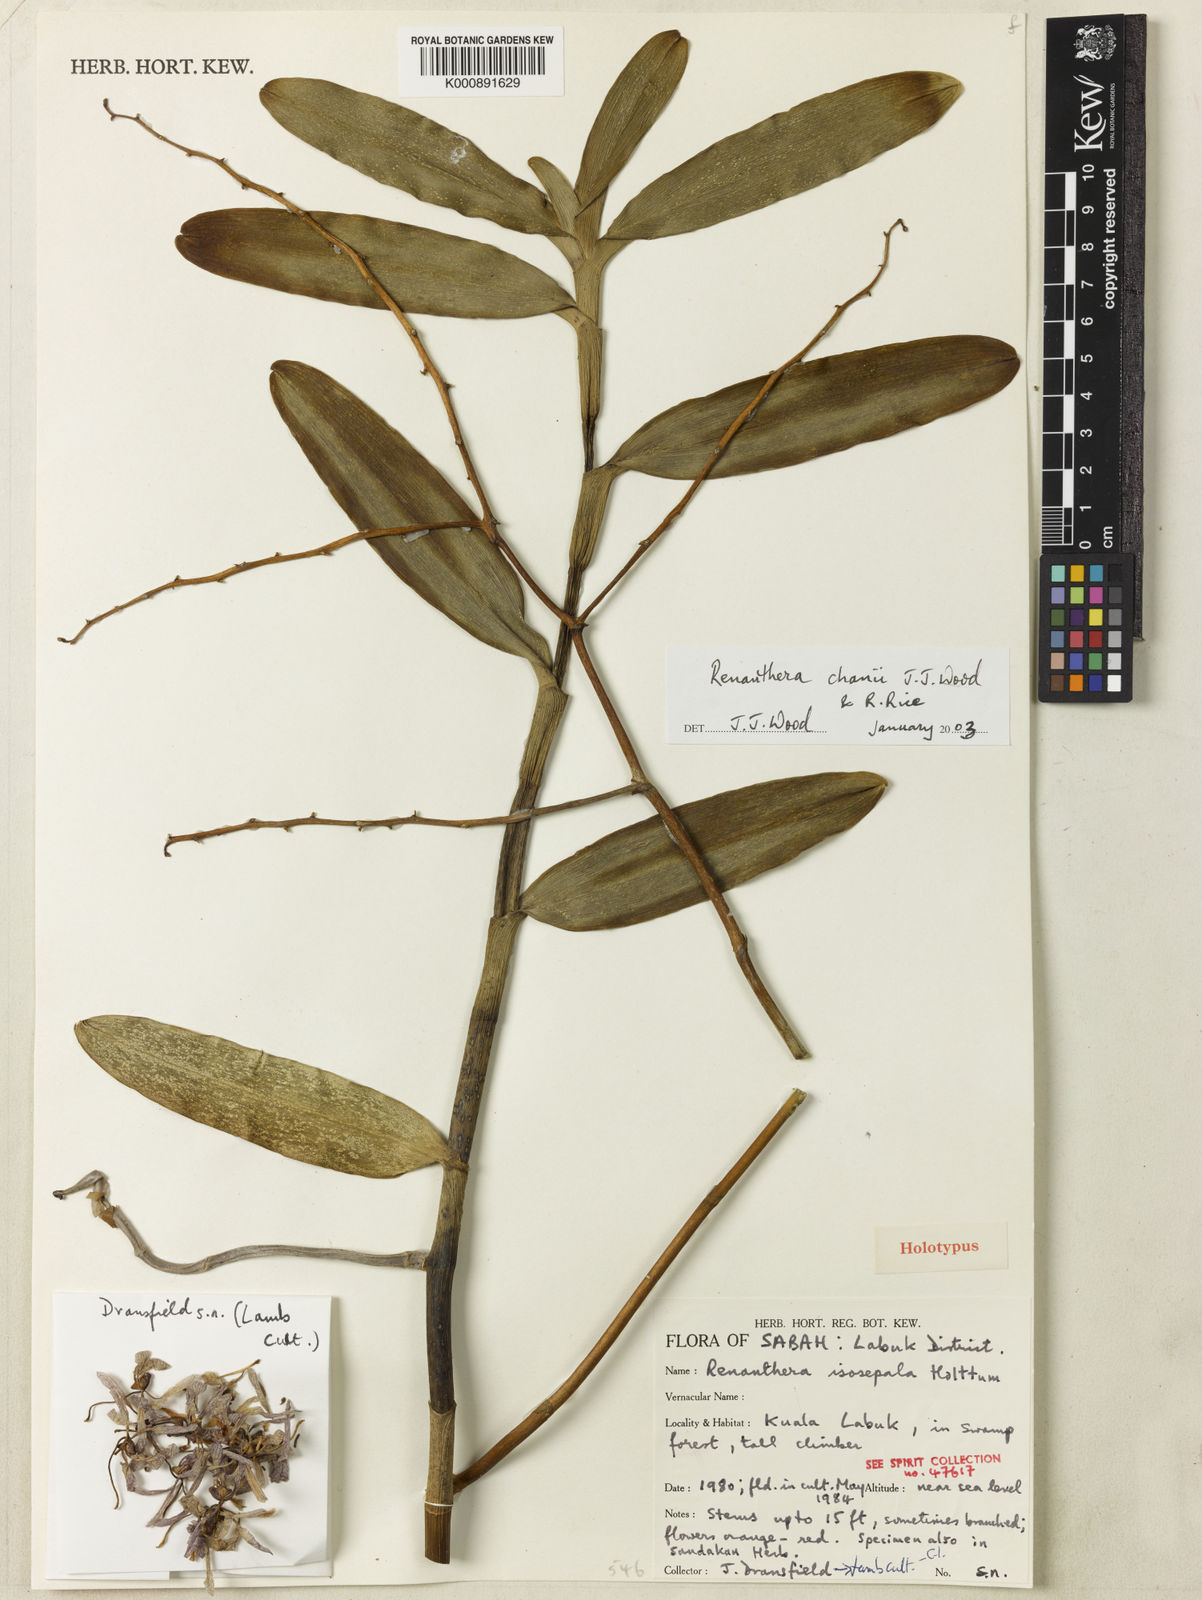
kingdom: Plantae
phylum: Tracheophyta
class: Liliopsida
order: Asparagales
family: Orchidaceae
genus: Renanthera
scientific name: Renanthera chanii
